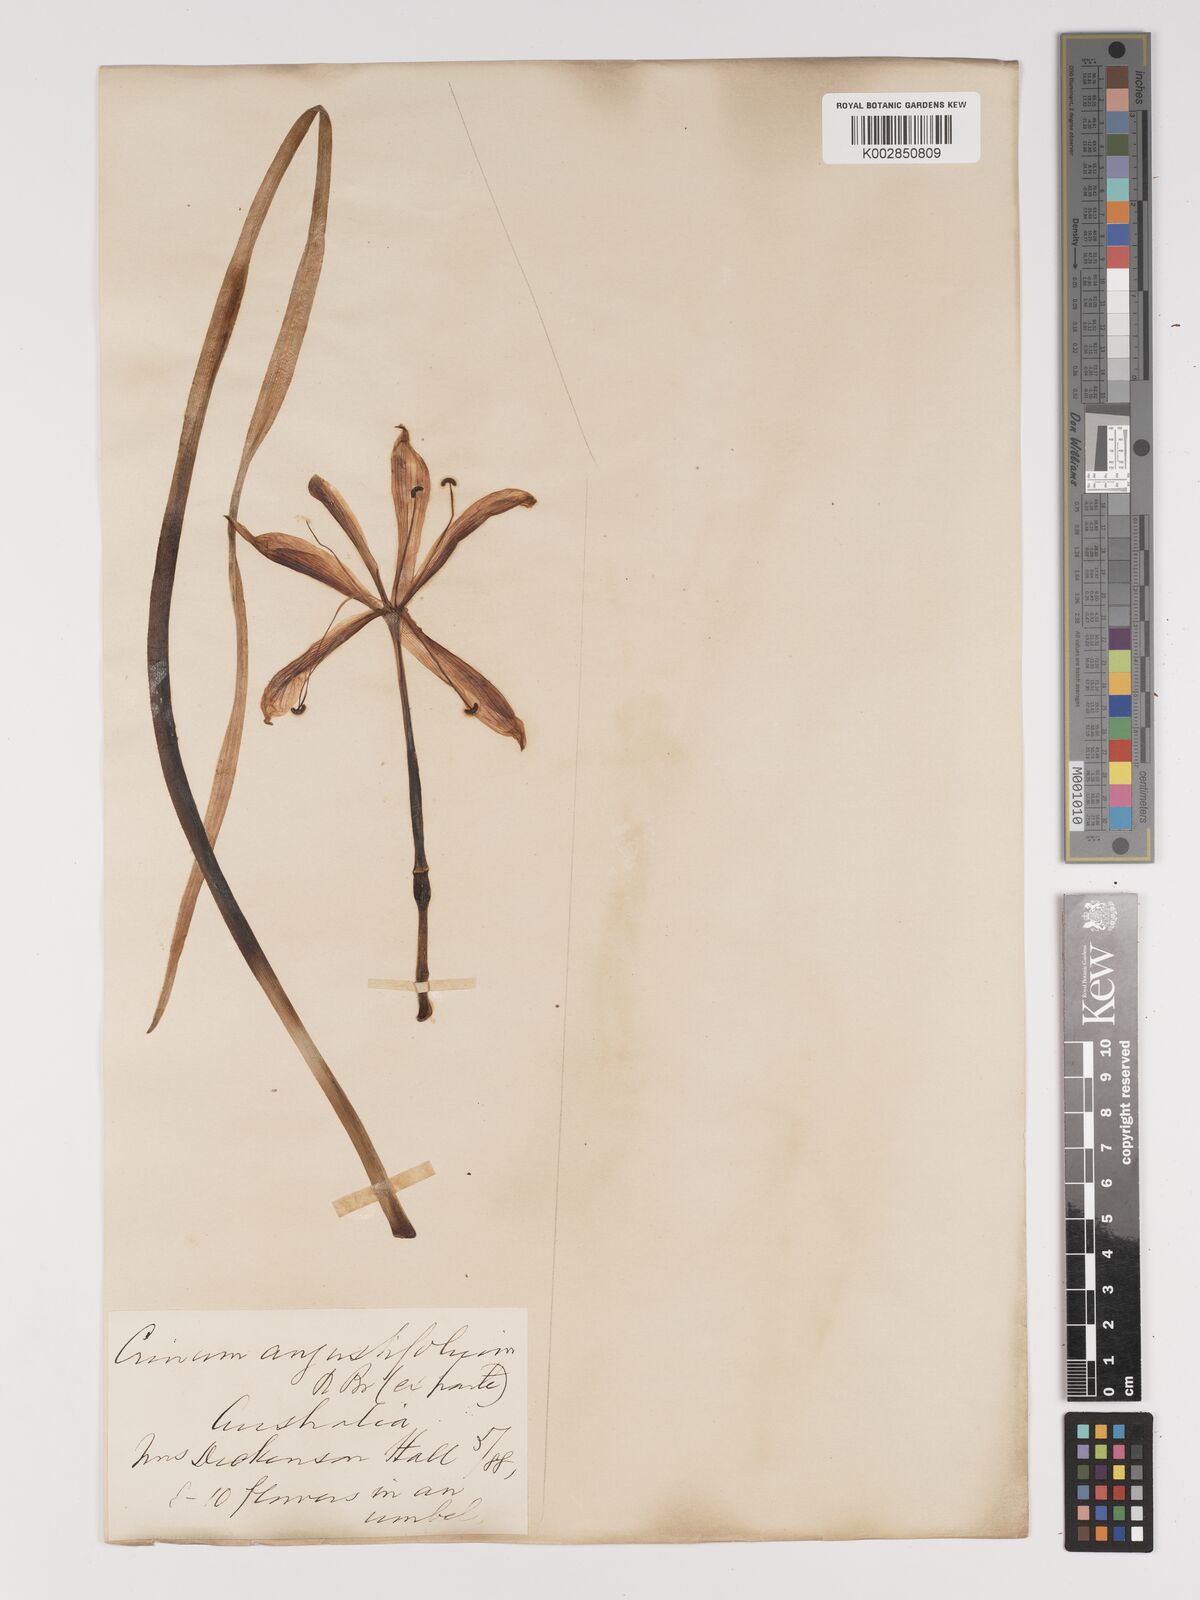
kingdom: Plantae
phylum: Tracheophyta
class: Liliopsida
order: Asparagales
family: Amaryllidaceae
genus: Crinum
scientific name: Crinum arenarium
